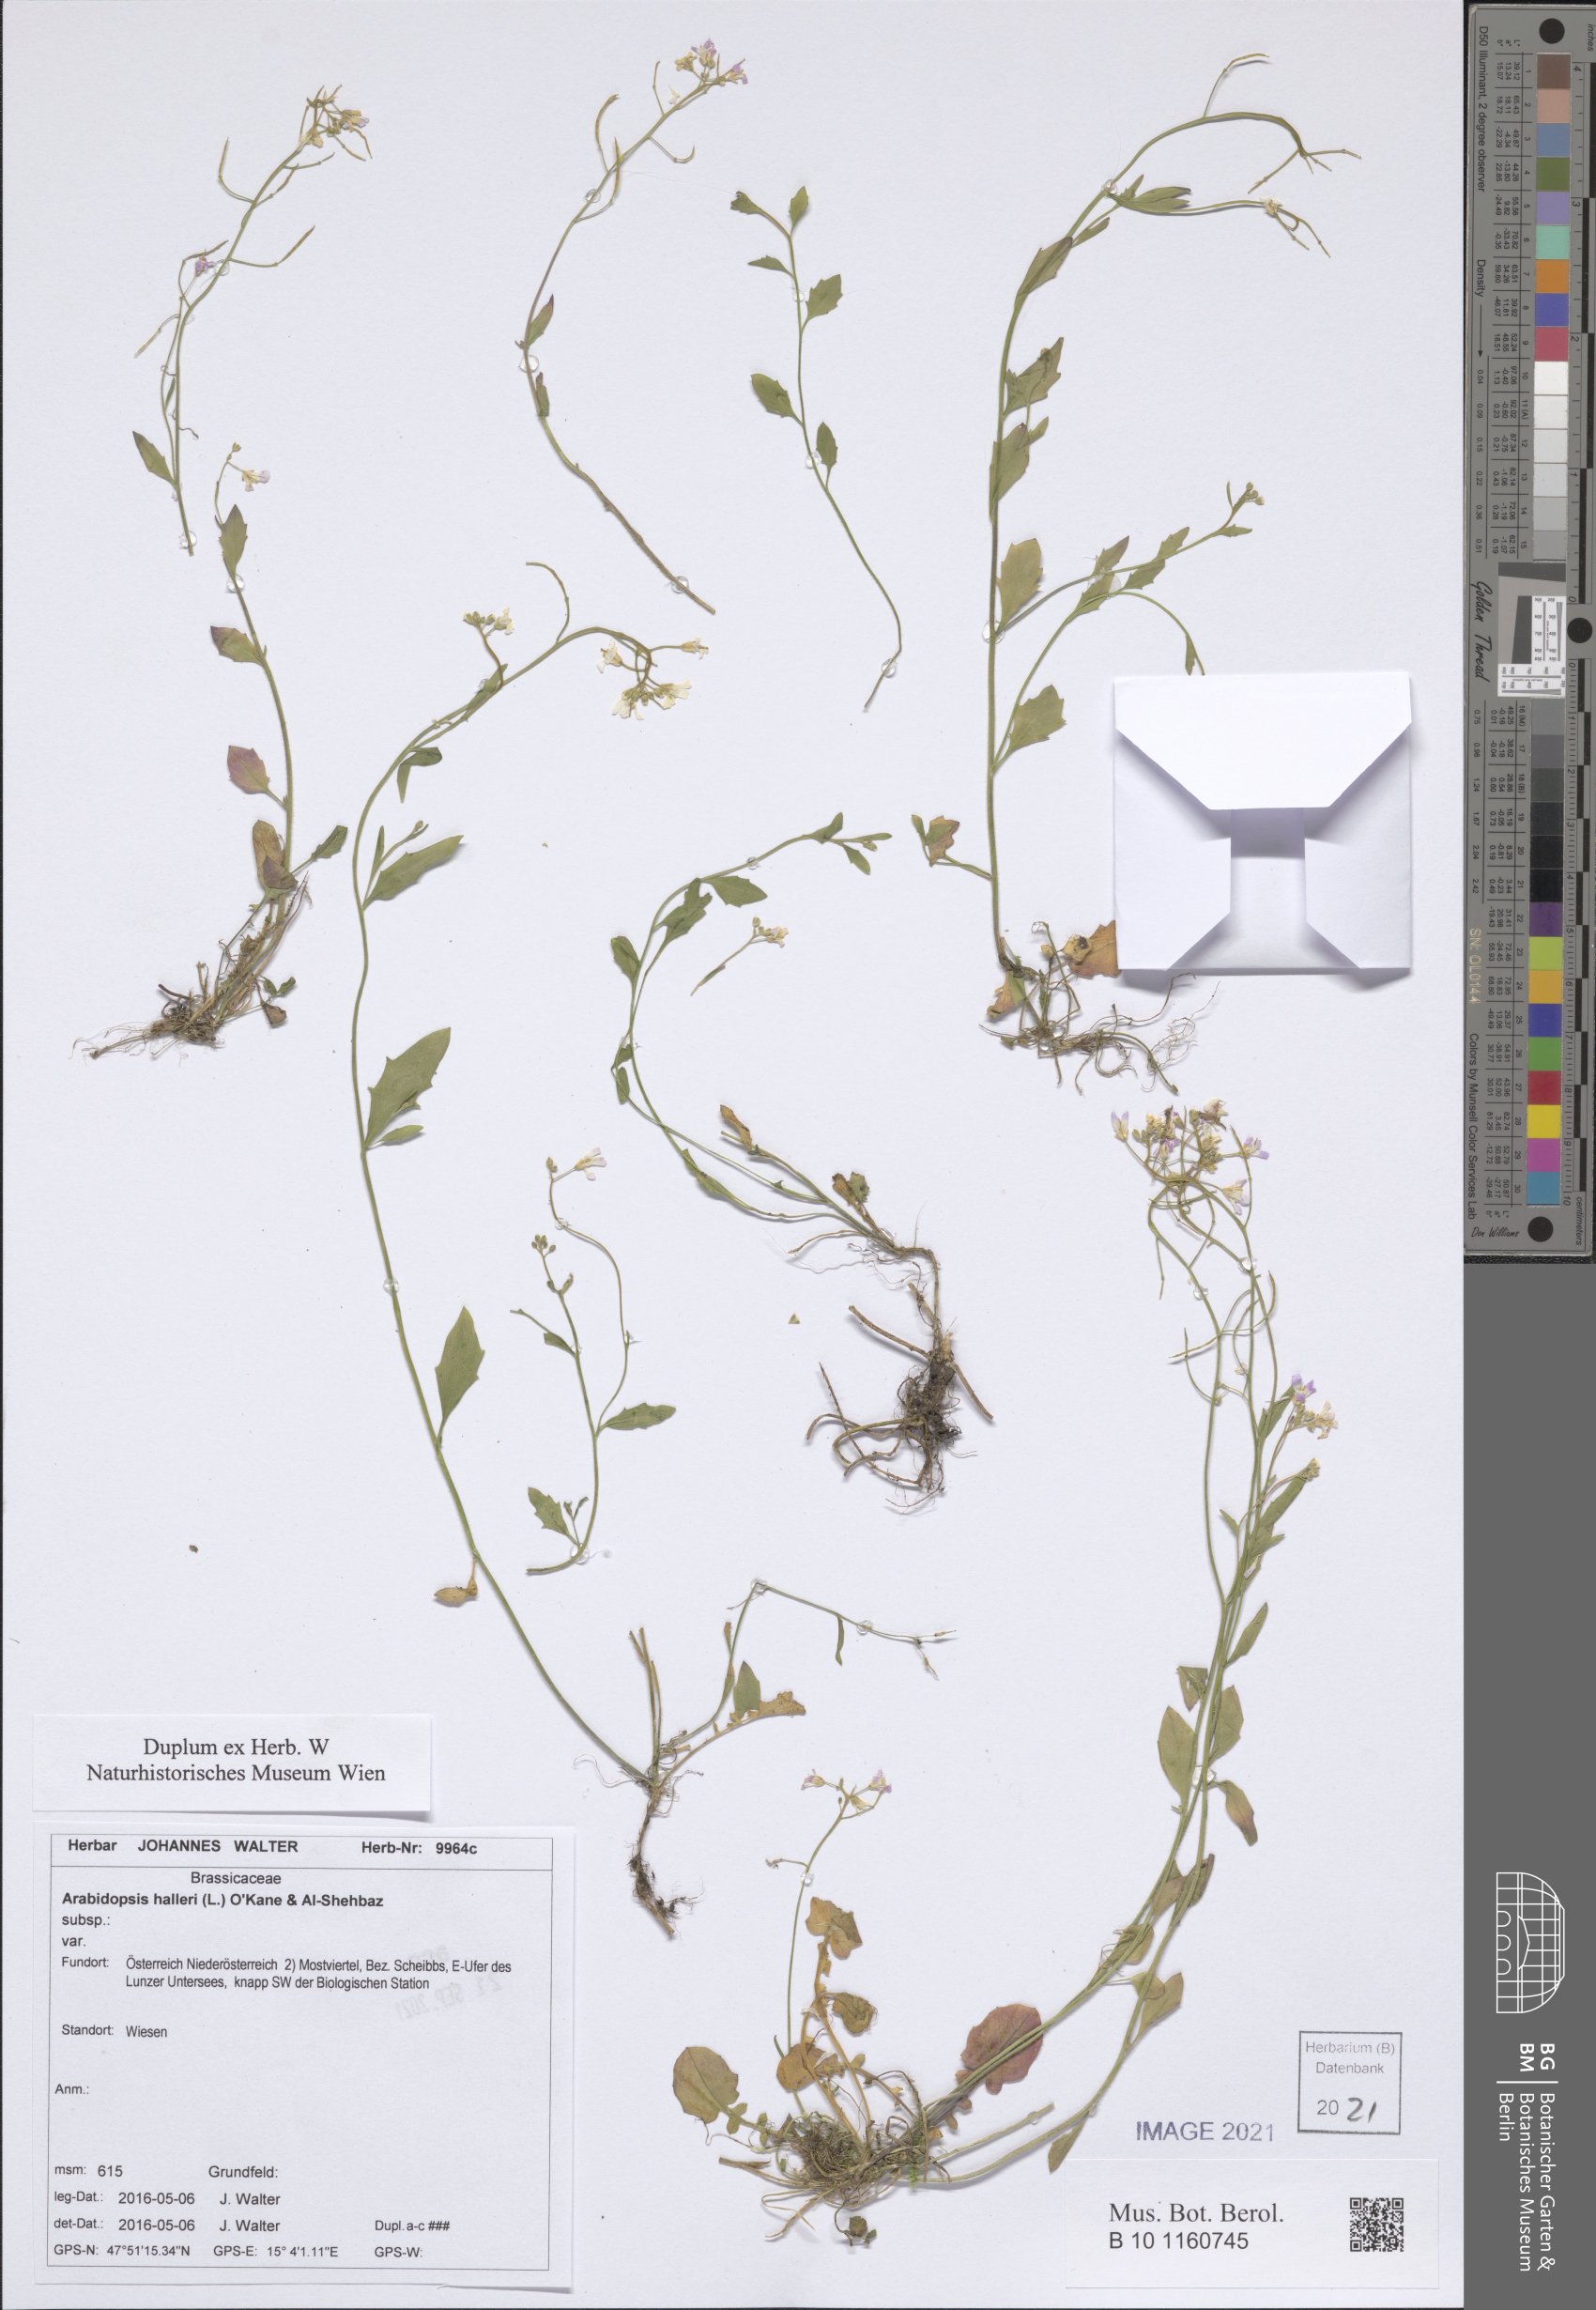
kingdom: Plantae
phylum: Tracheophyta
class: Magnoliopsida
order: Brassicales
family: Brassicaceae
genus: Arabidopsis
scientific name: Arabidopsis halleri
